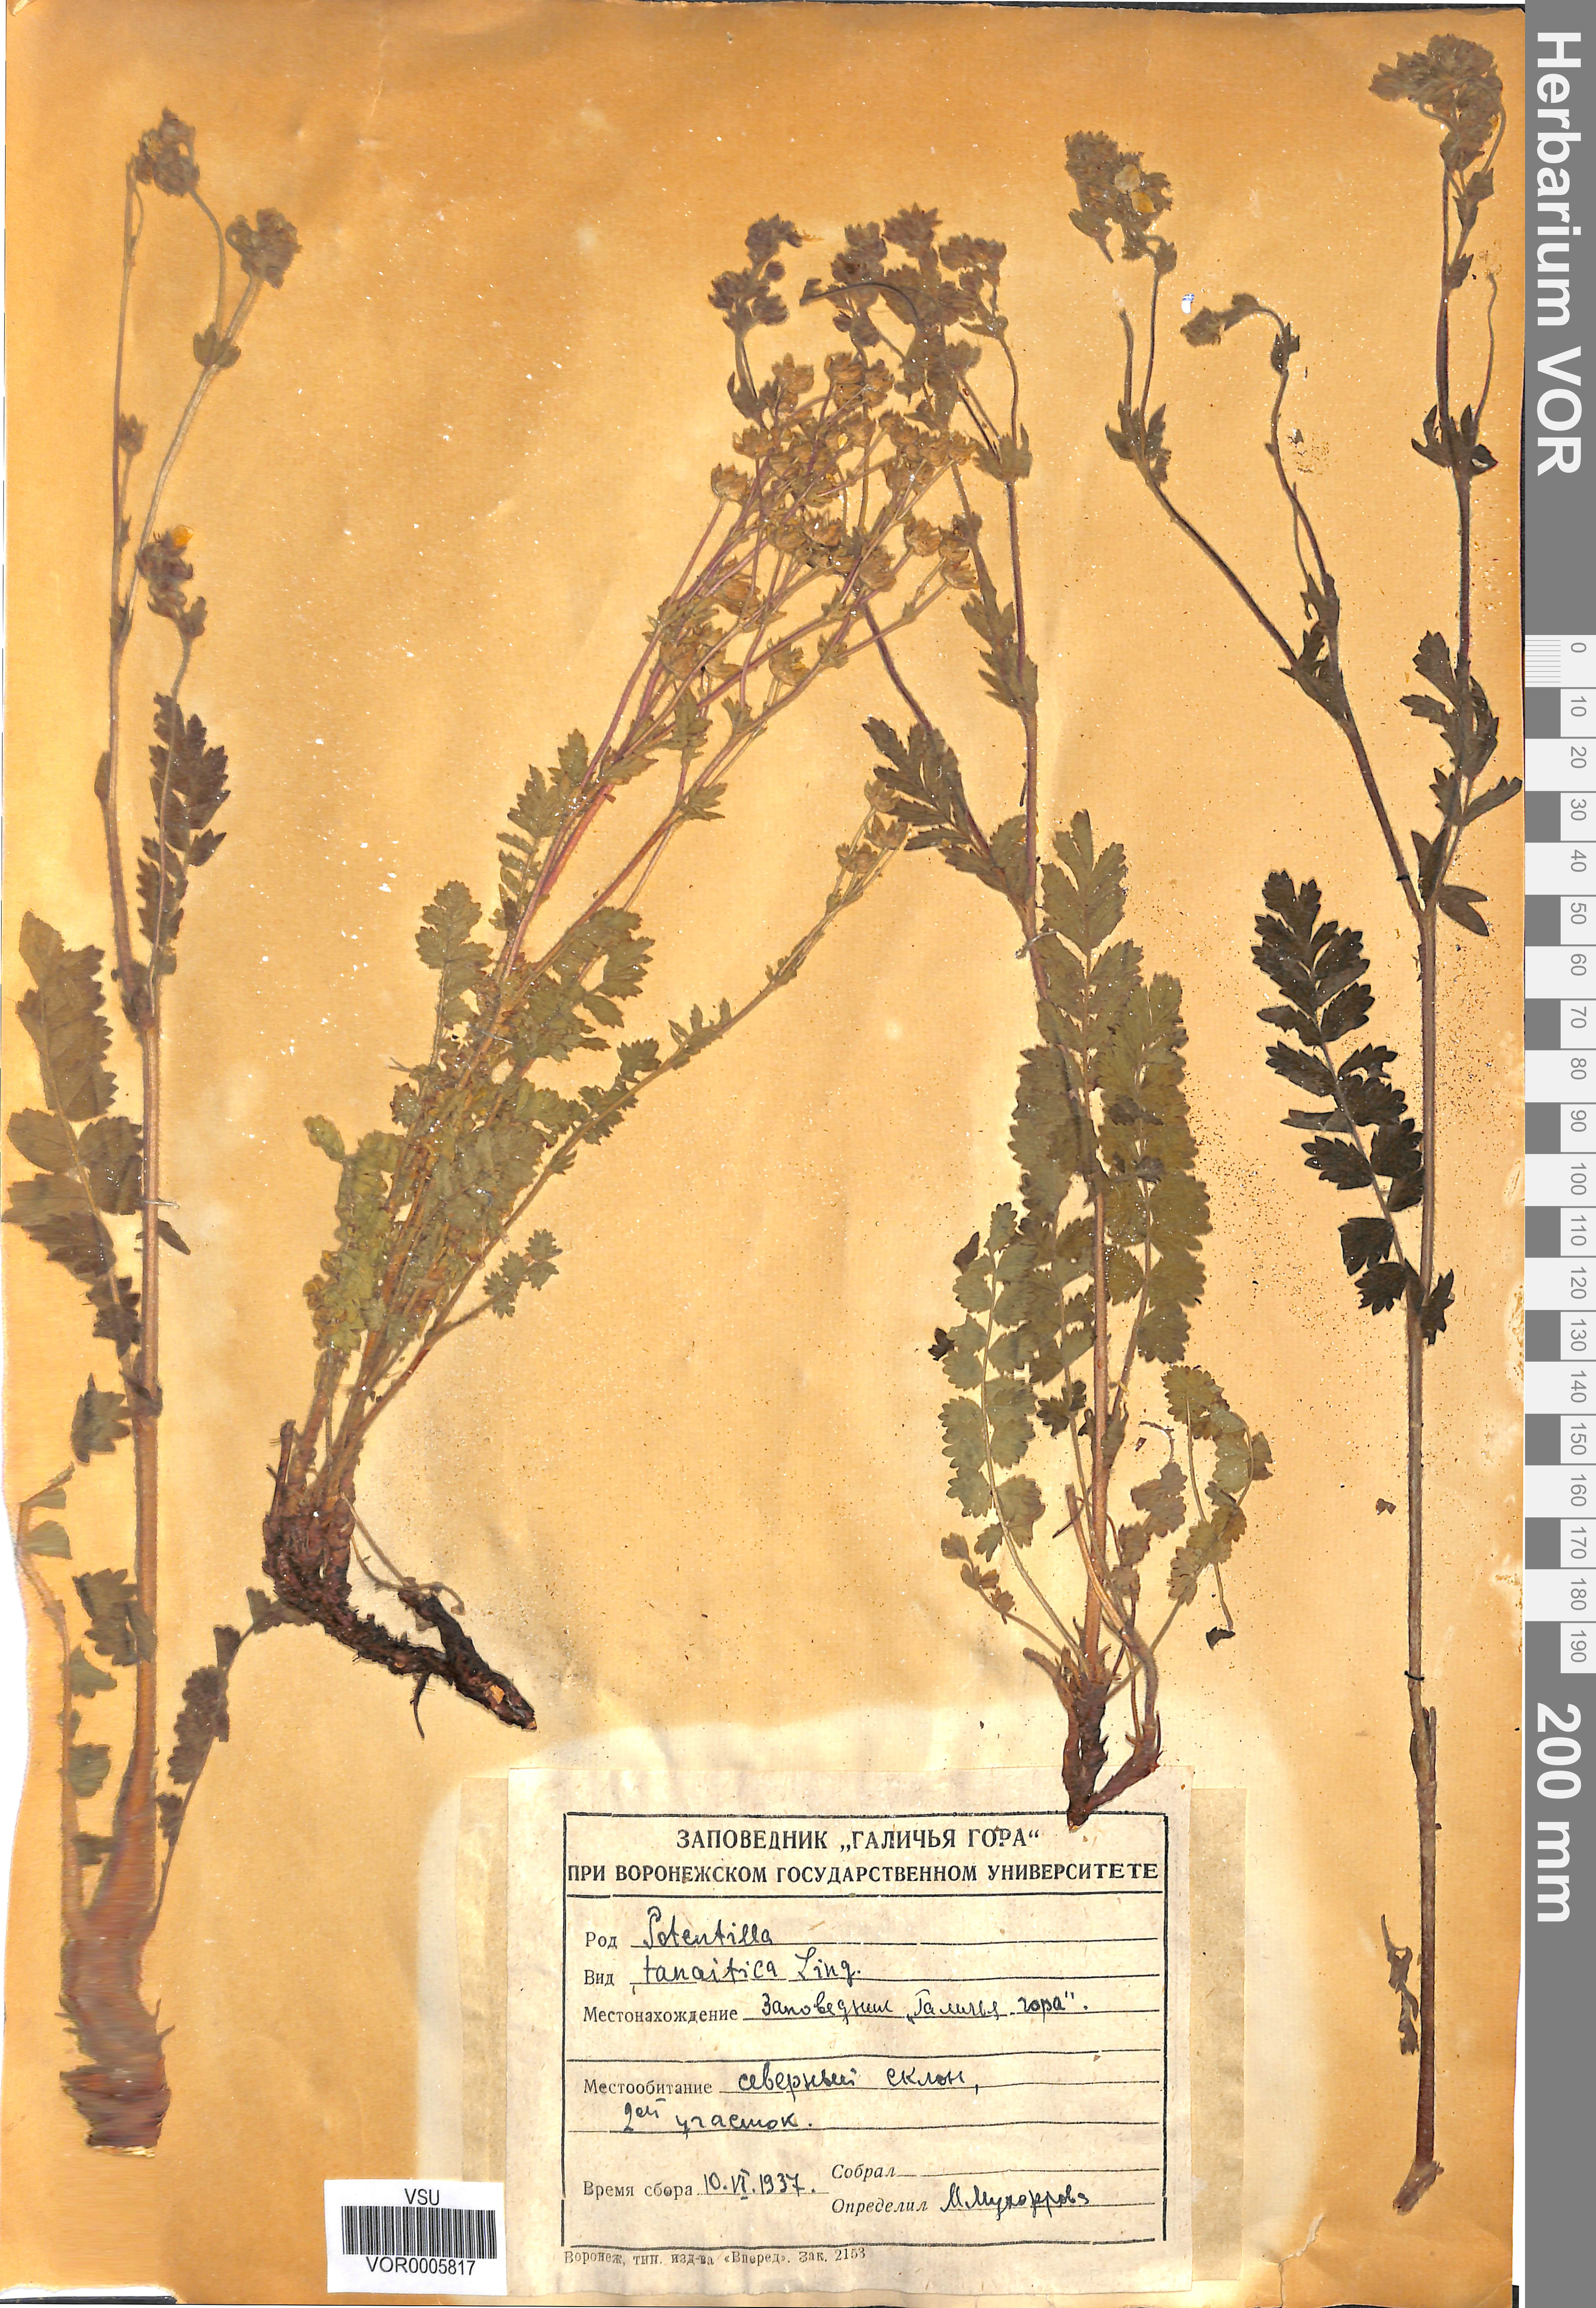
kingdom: Plantae
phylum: Tracheophyta
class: Magnoliopsida
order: Rosales
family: Rosaceae
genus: Potentilla
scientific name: Potentilla tanaitica
